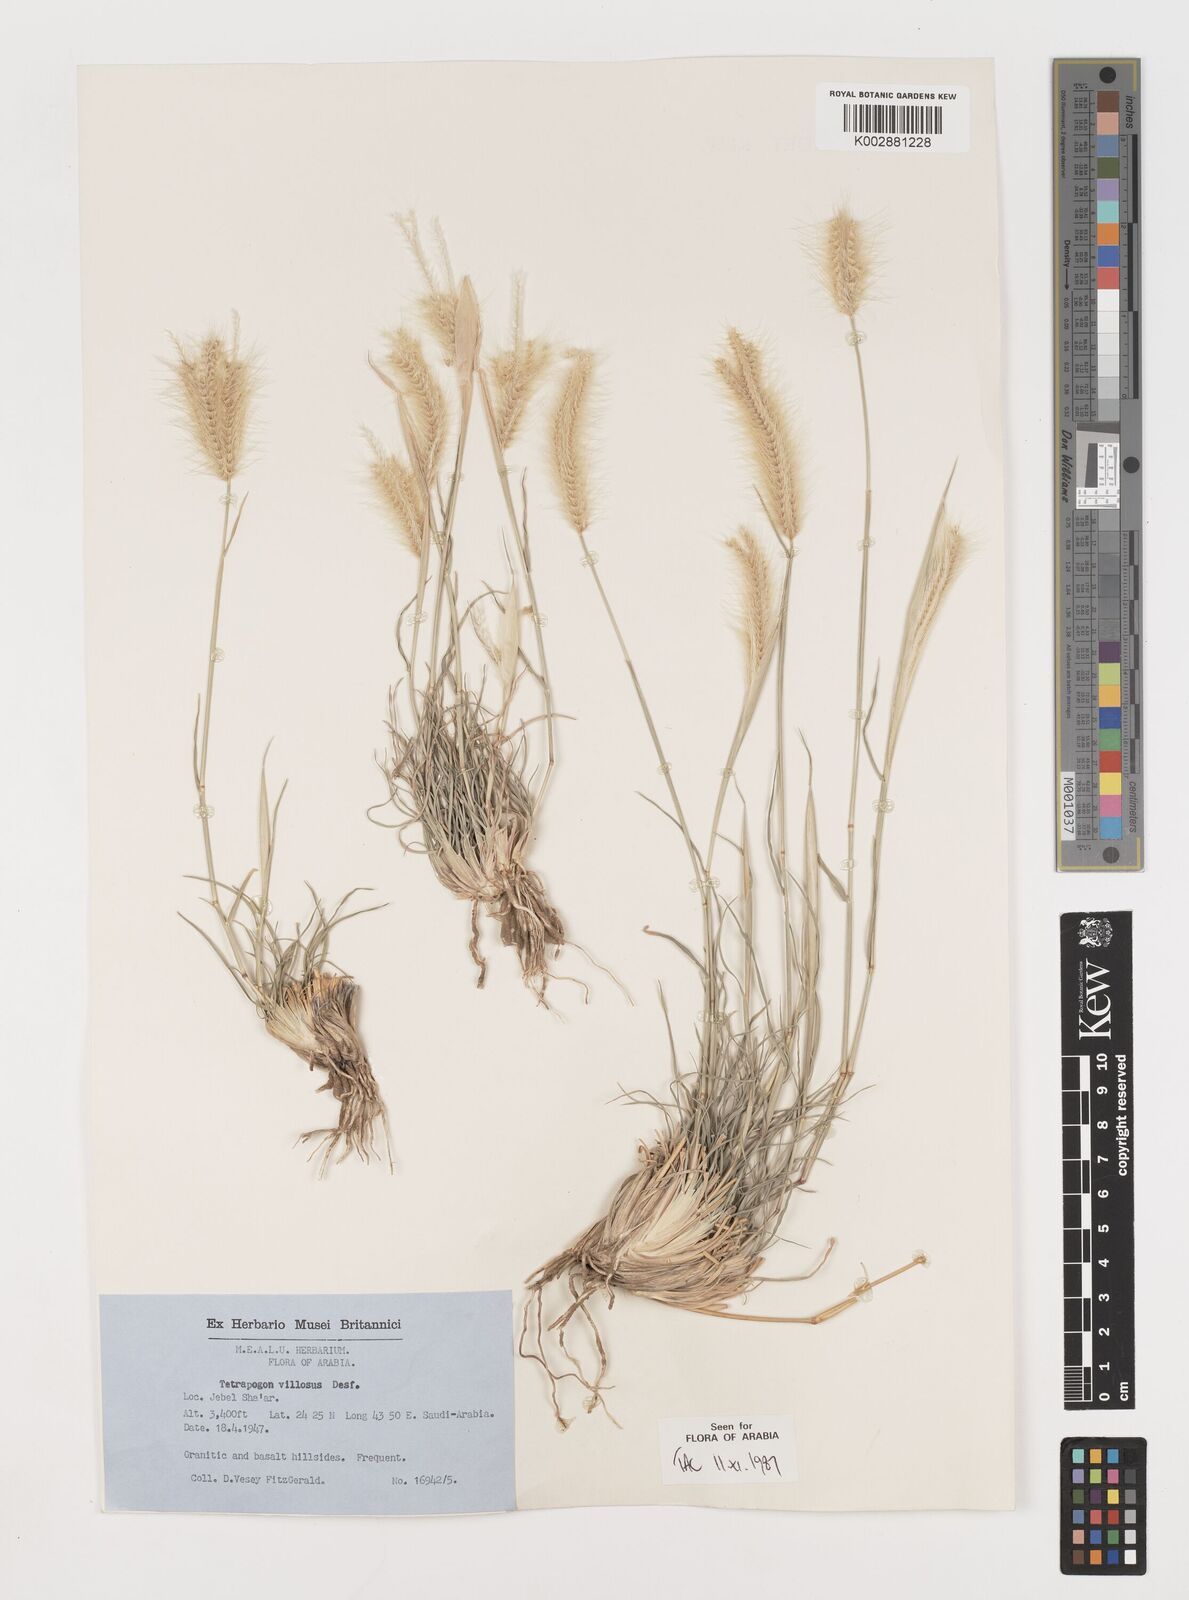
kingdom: Plantae
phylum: Tracheophyta
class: Liliopsida
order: Poales
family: Poaceae
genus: Tetrapogon
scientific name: Tetrapogon villosus
